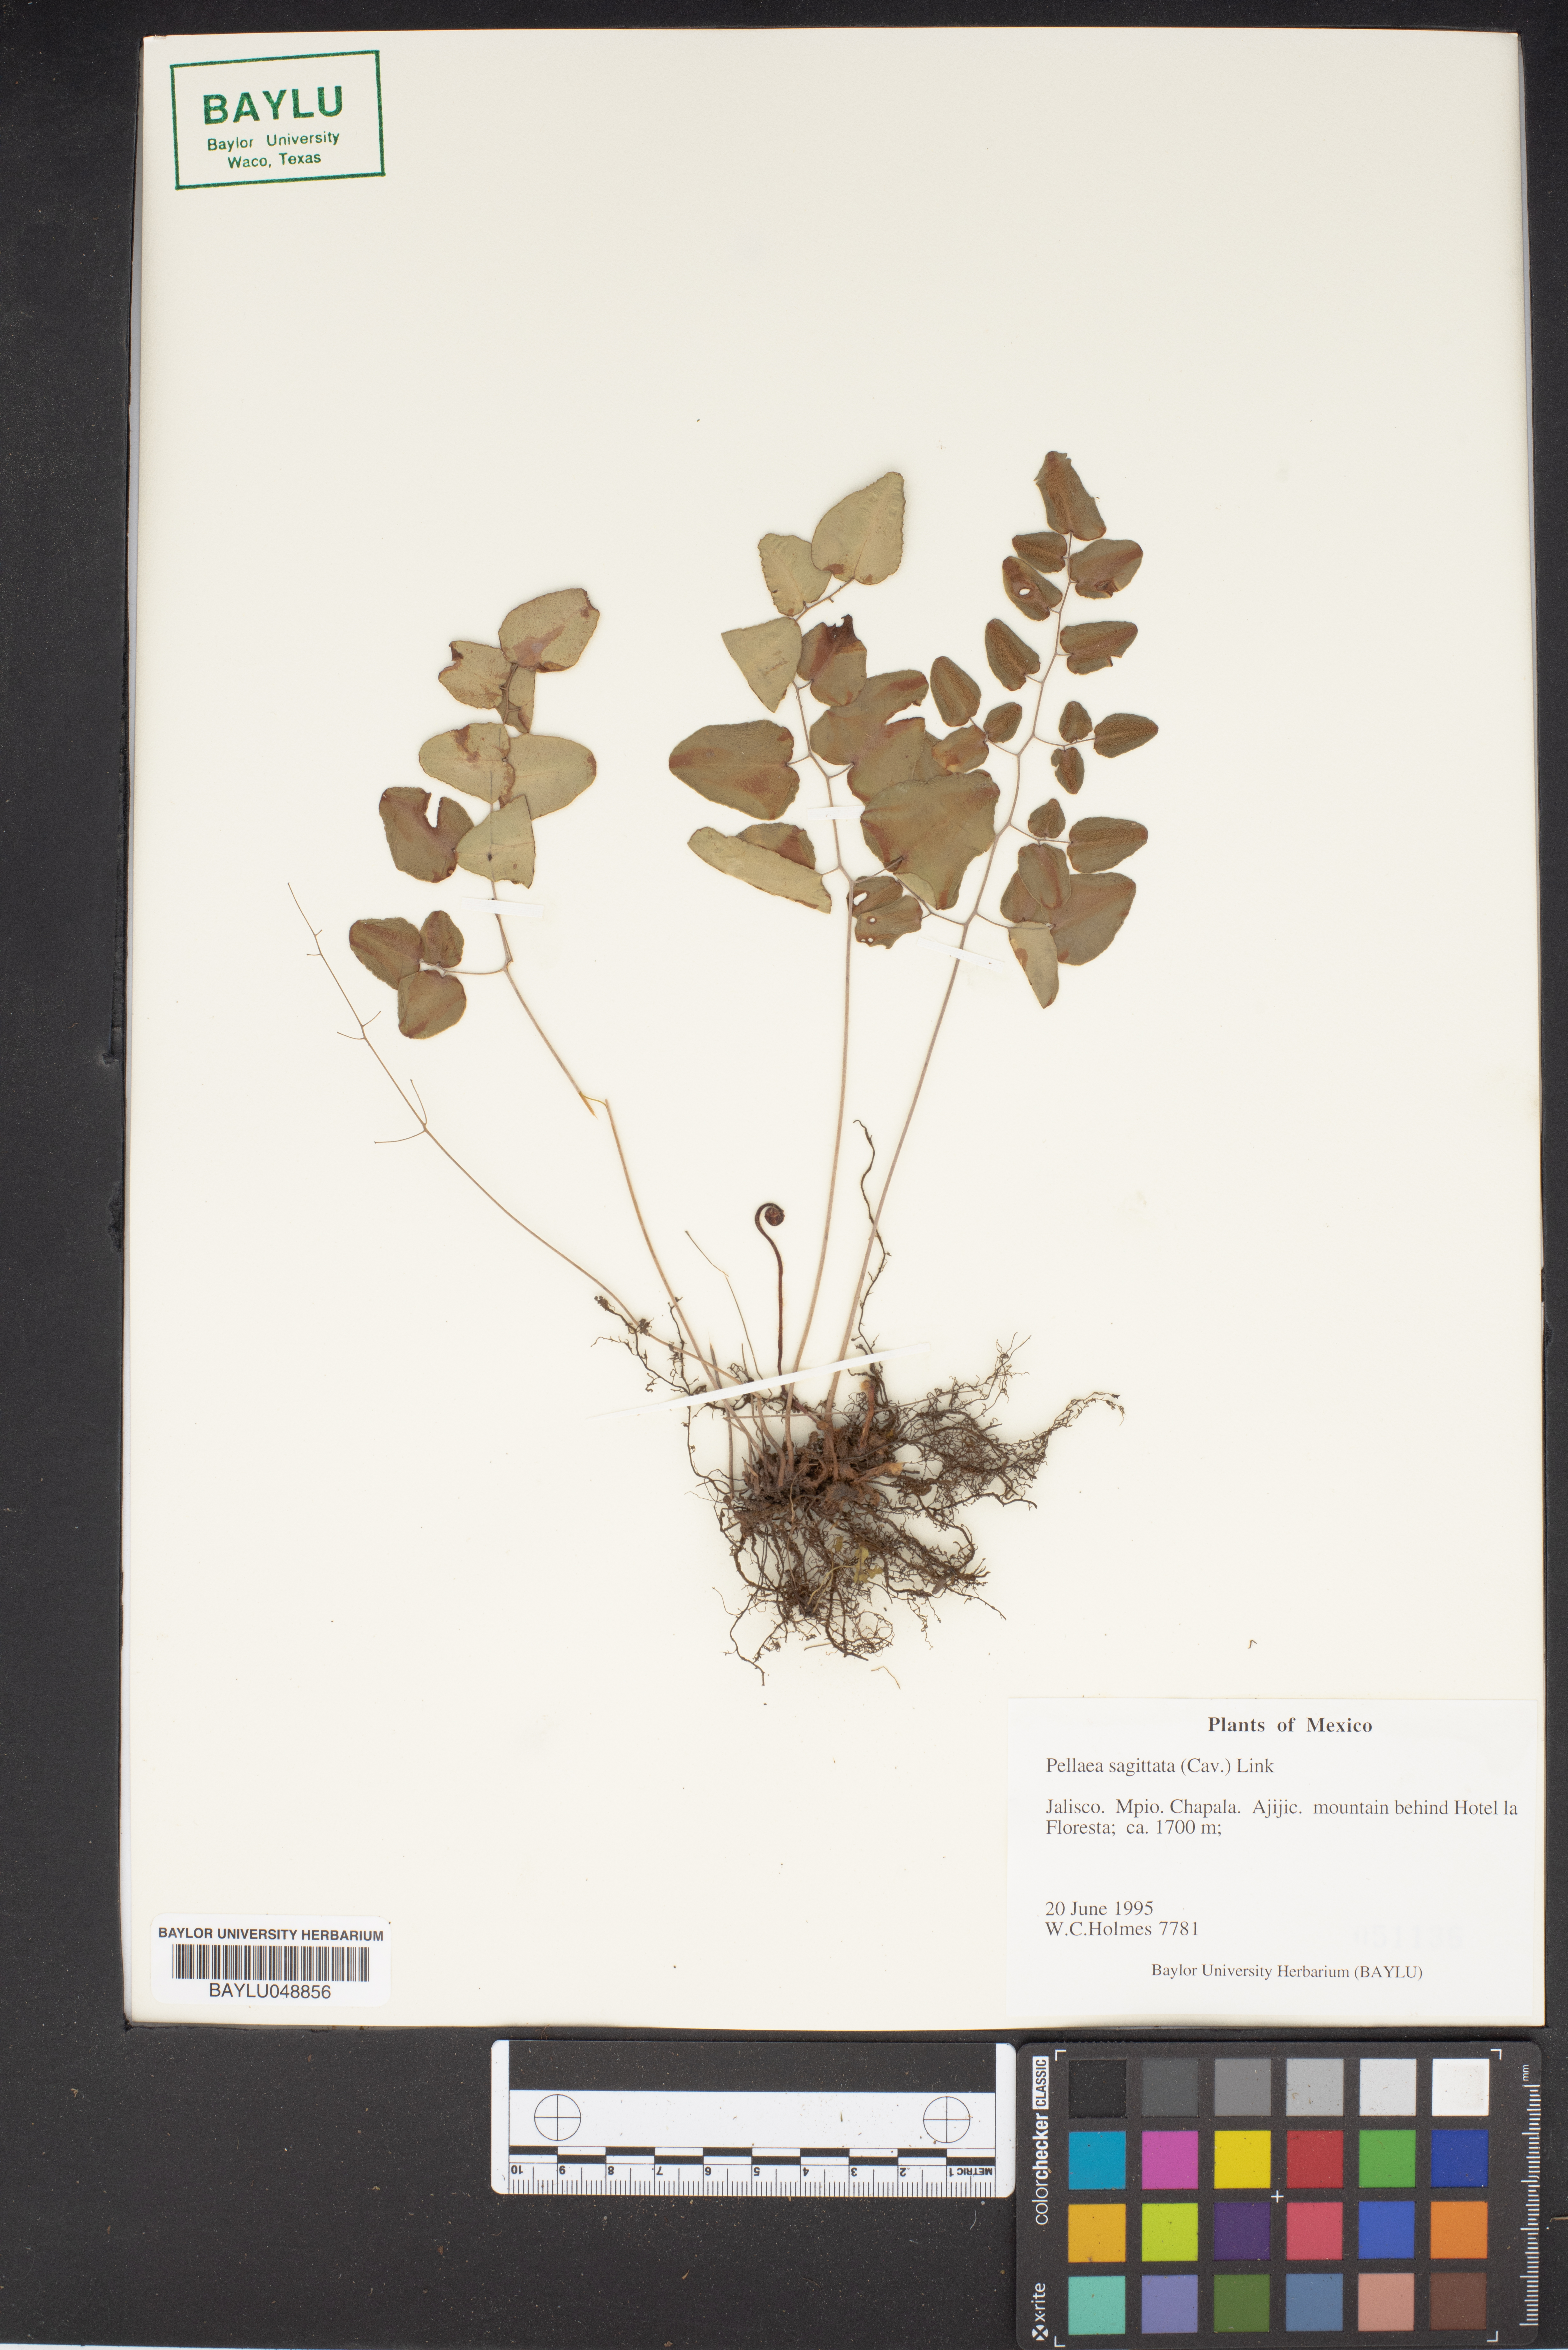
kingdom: Plantae
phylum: Tracheophyta
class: Polypodiopsida
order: Polypodiales
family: Pteridaceae
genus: Pellaea
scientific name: Pellaea sagittata
